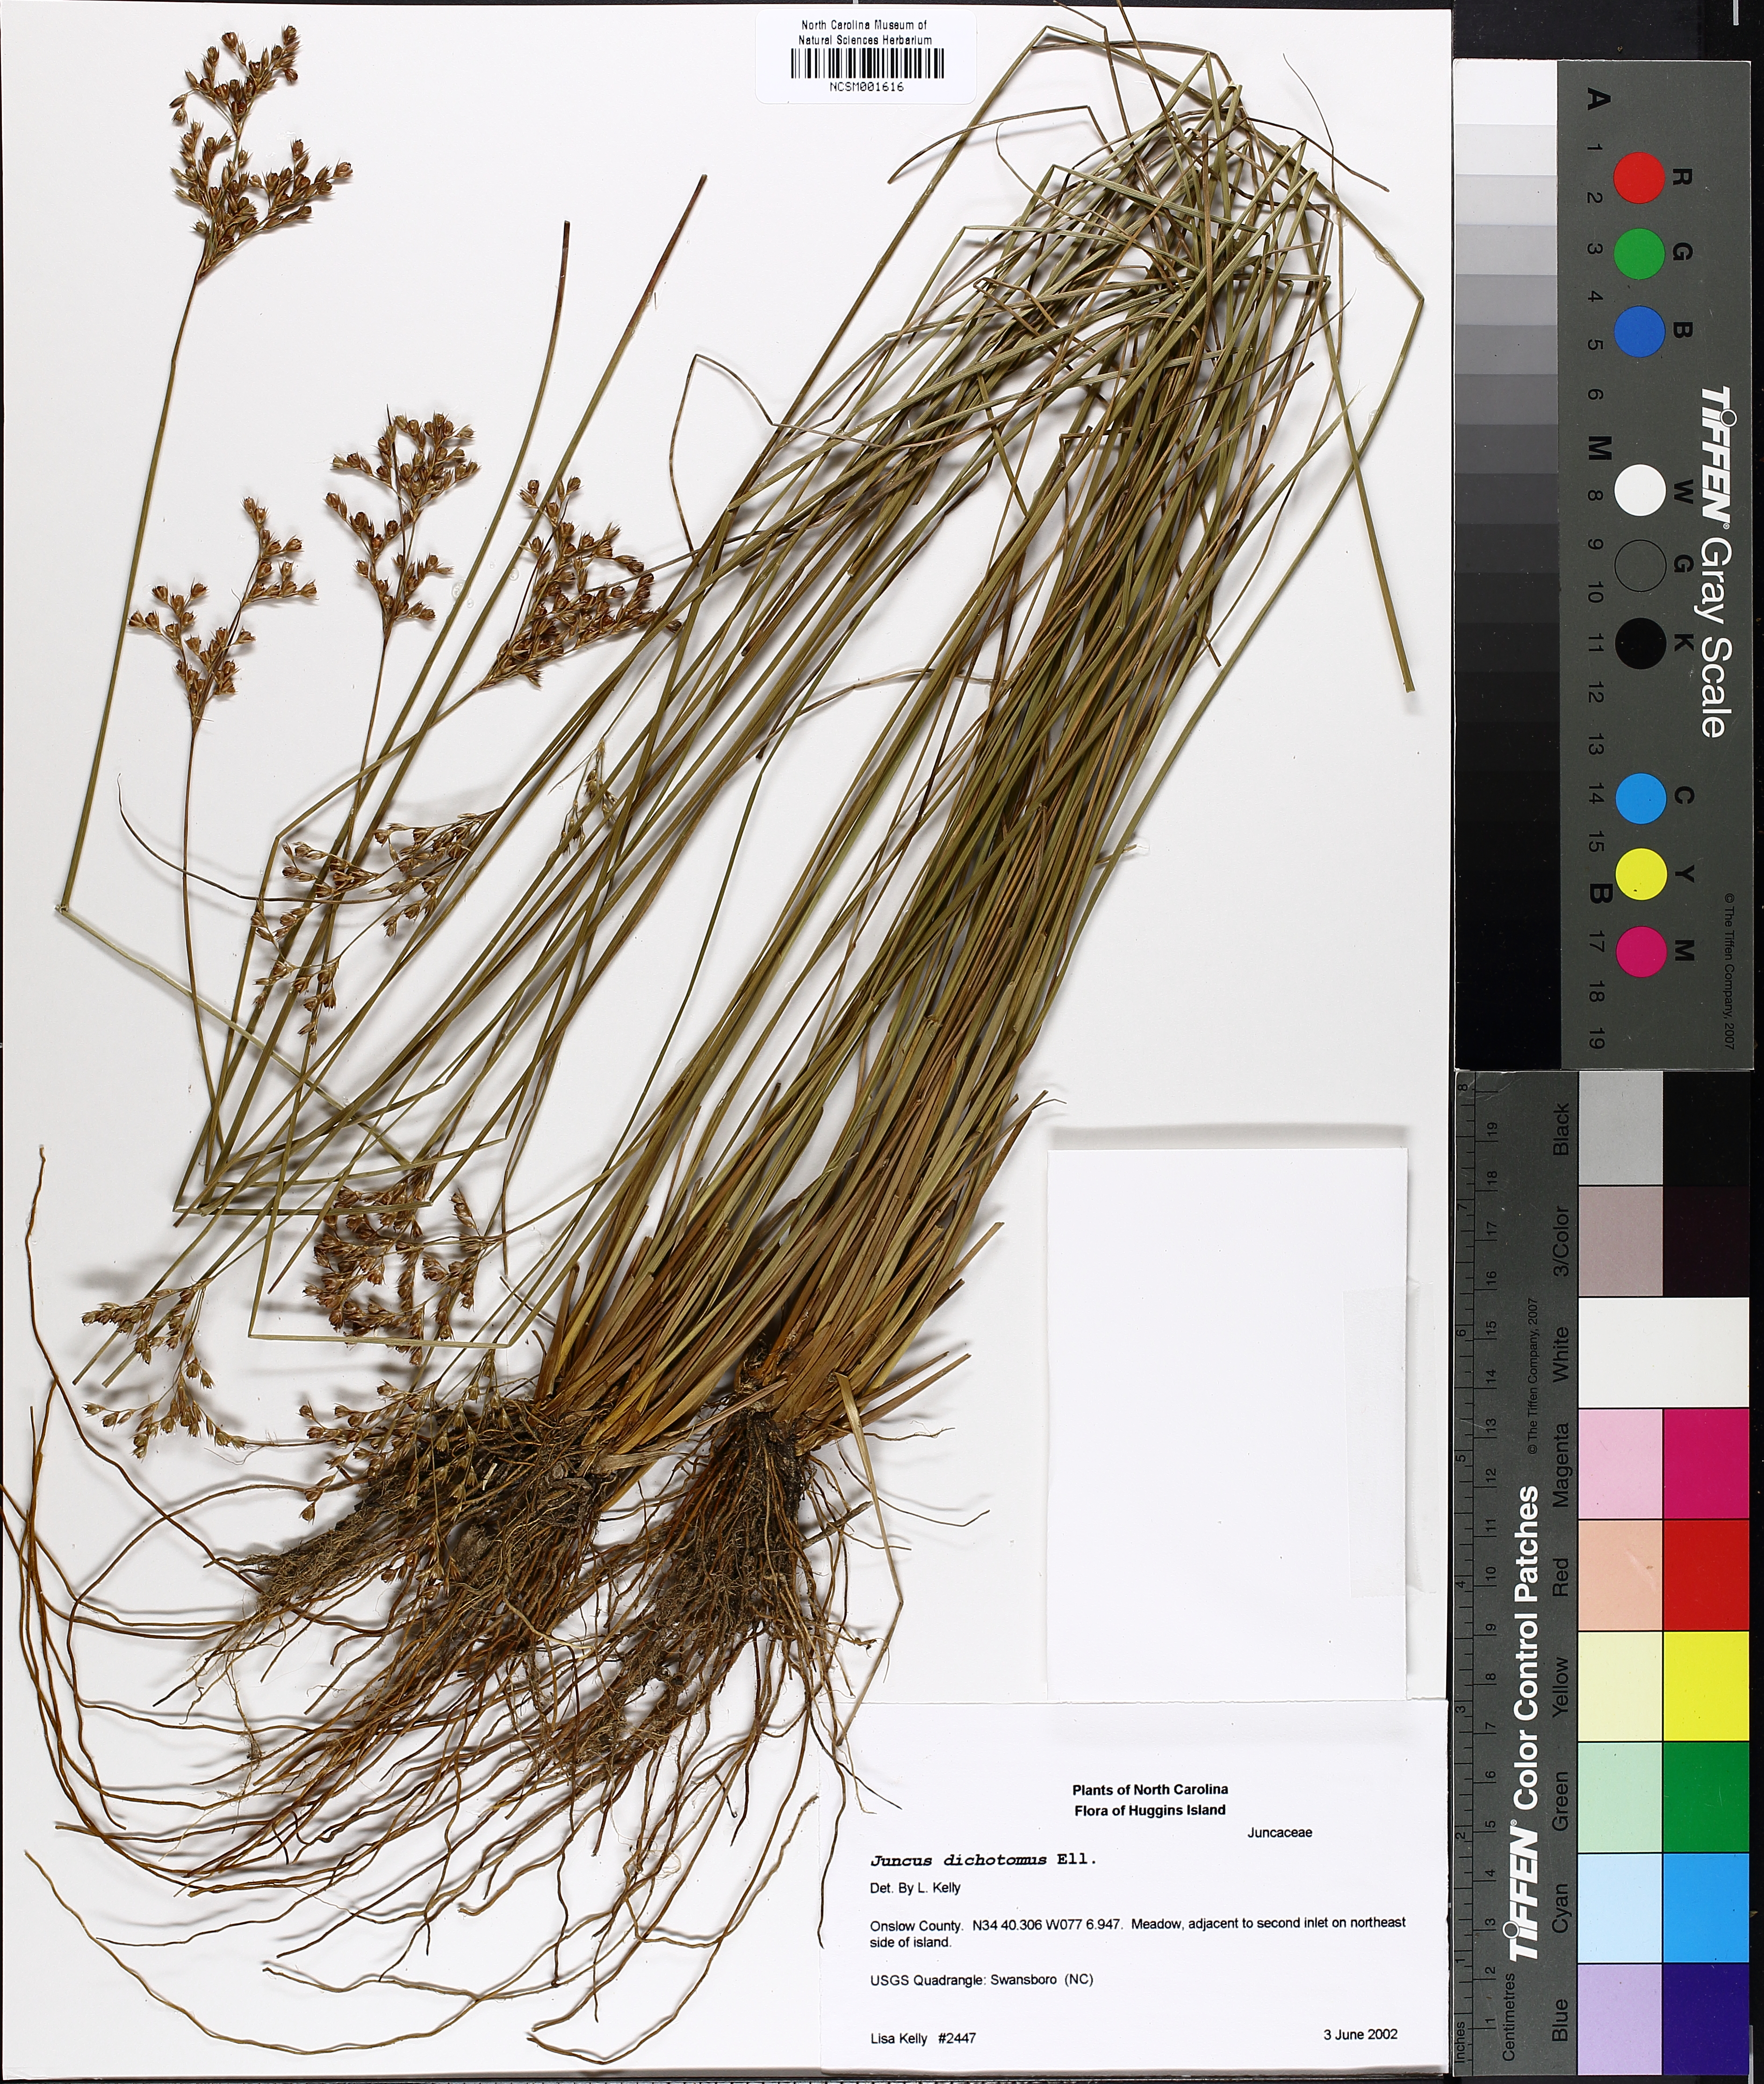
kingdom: Plantae
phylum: Tracheophyta
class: Liliopsida
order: Poales
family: Juncaceae
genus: Juncus
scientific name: Juncus dichotomus
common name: Forked rush
